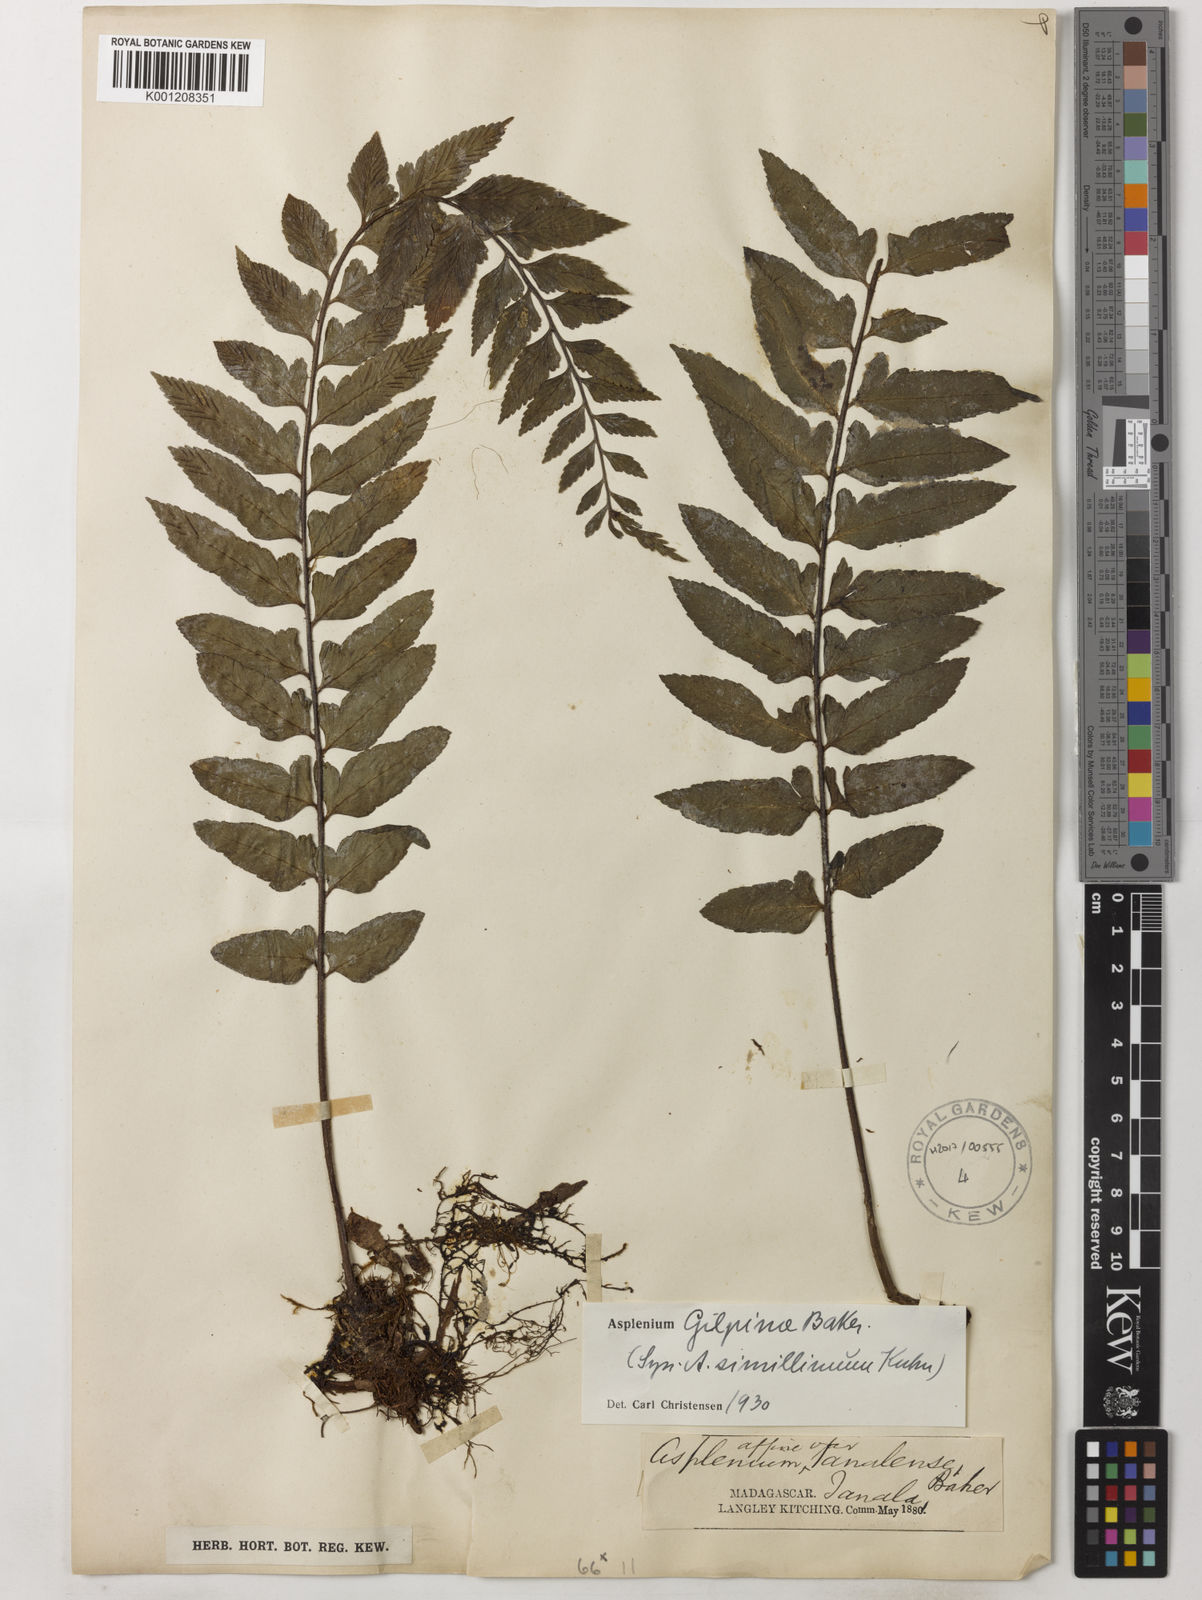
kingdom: Plantae
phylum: Tracheophyta
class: Polypodiopsida
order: Polypodiales
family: Aspleniaceae
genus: Asplenium
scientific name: Asplenium herpetopteris
